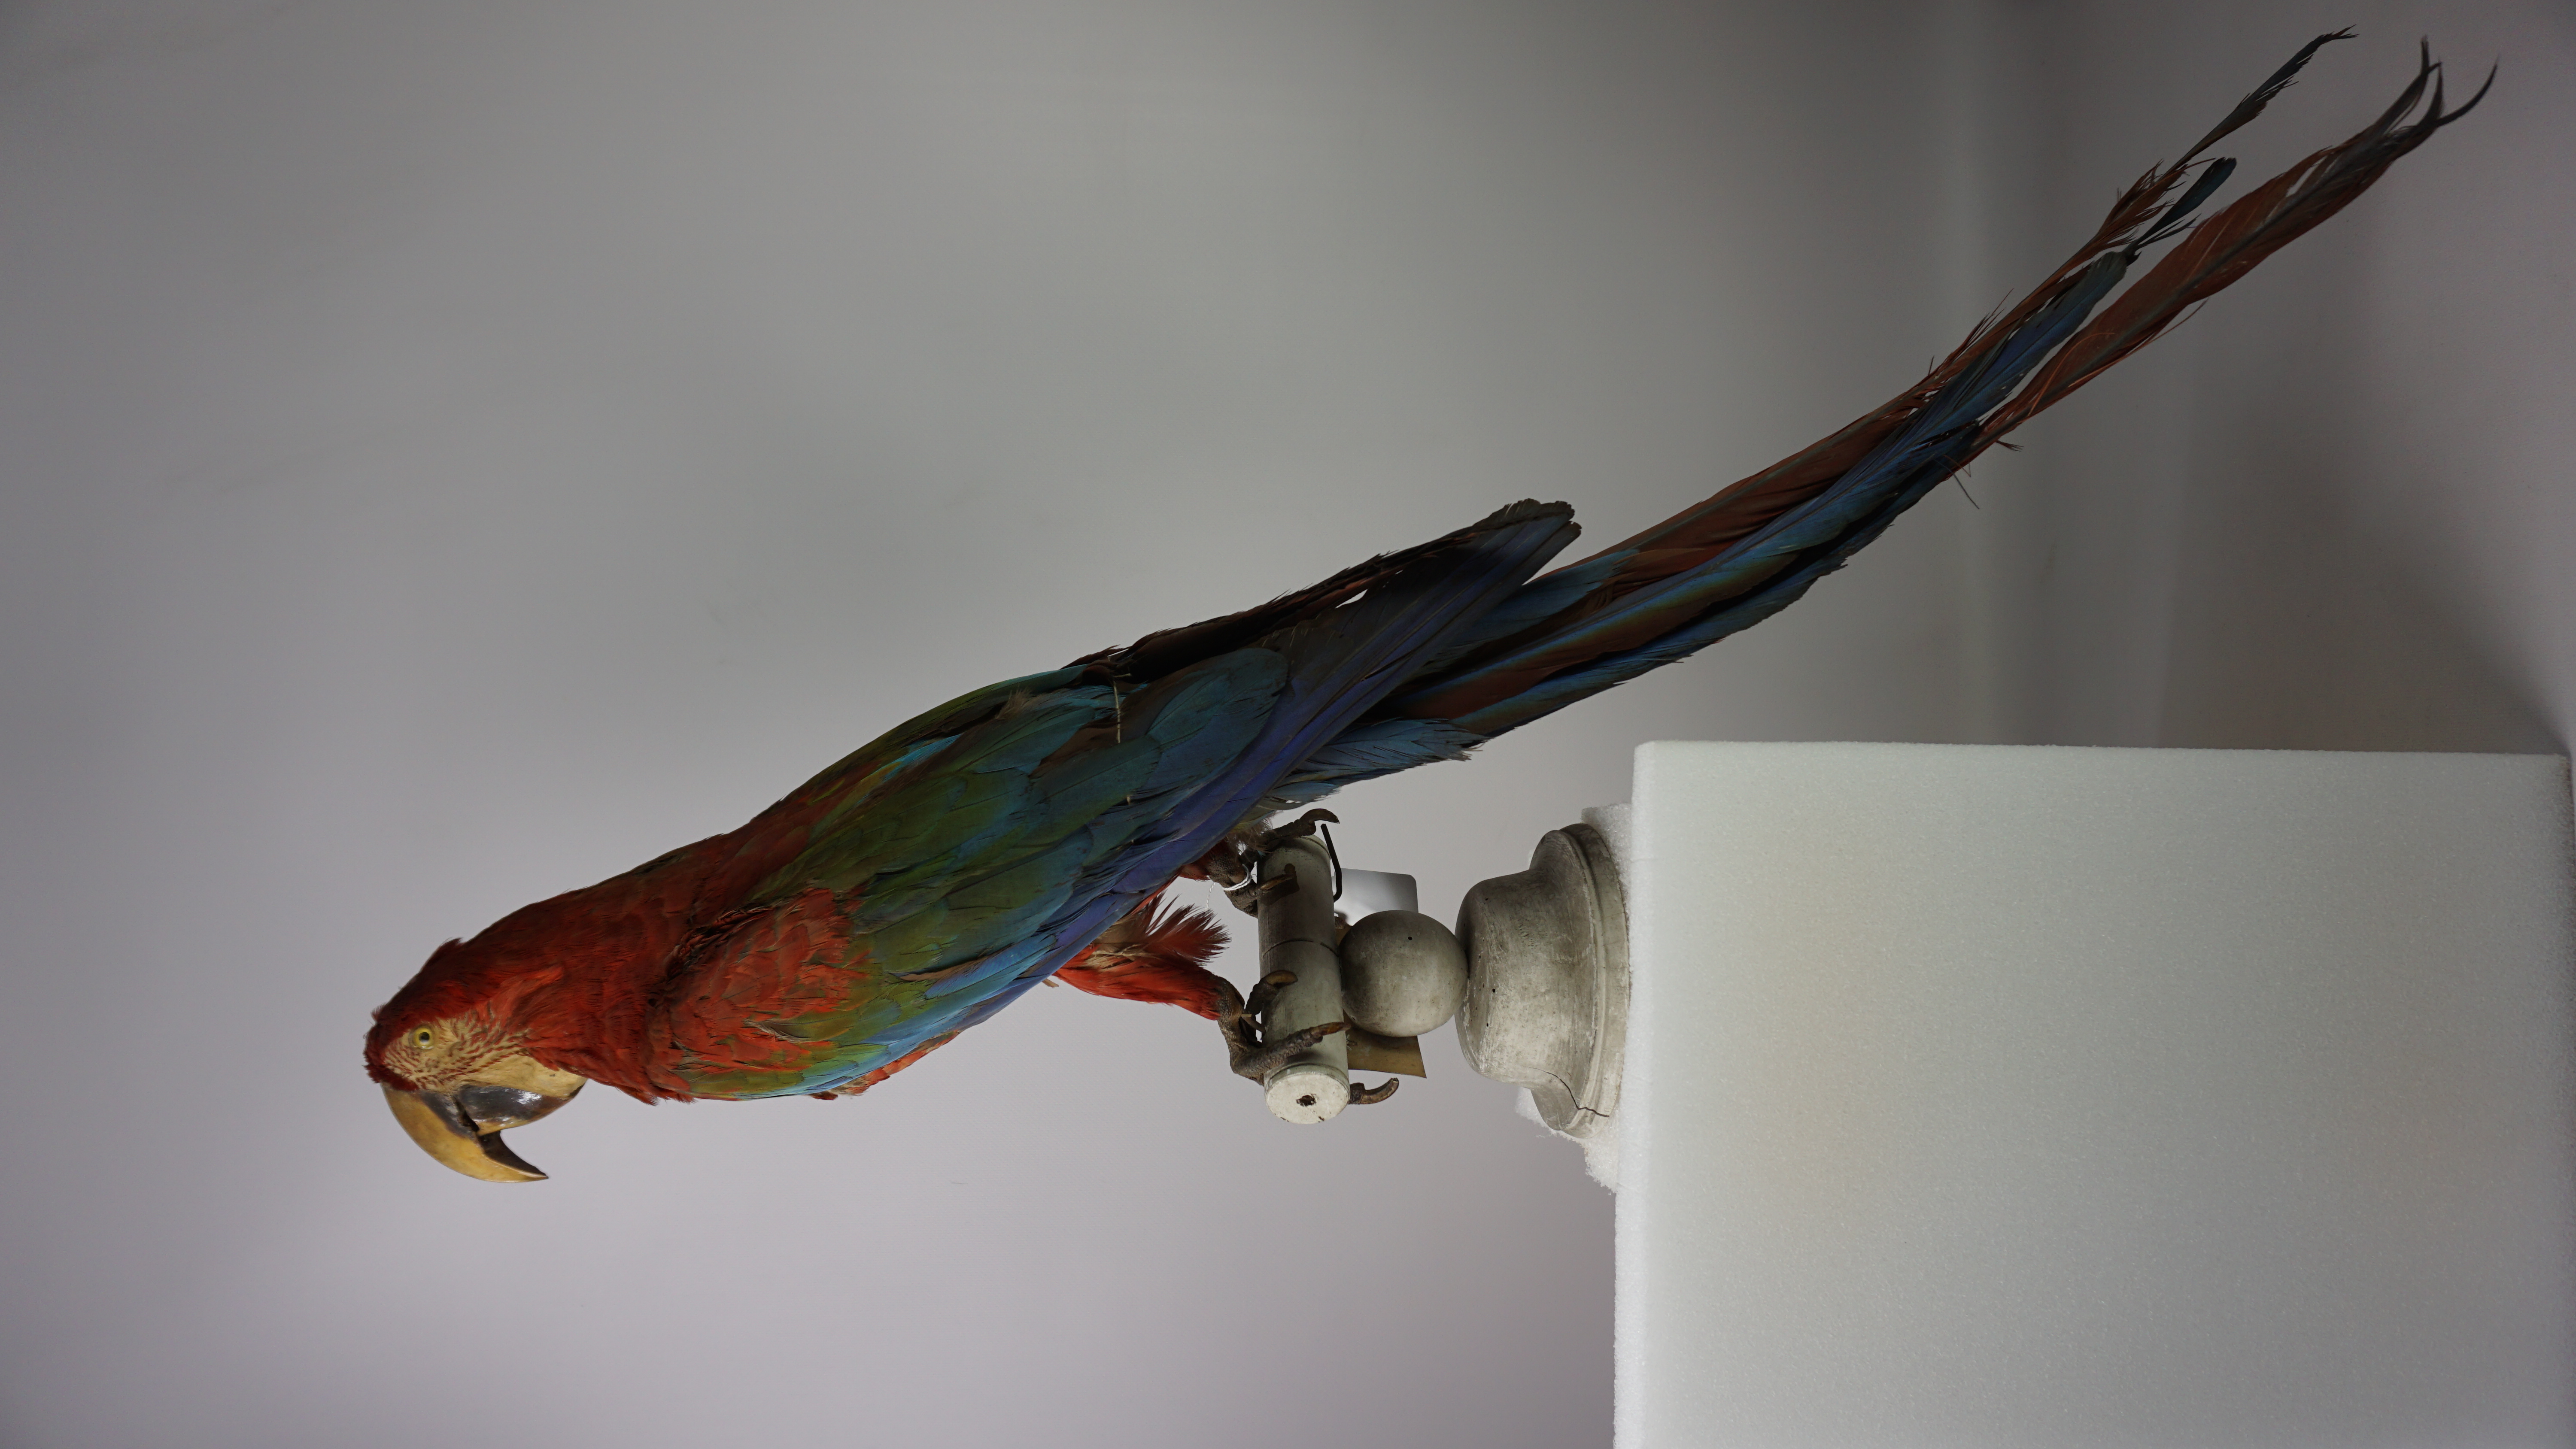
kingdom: Animalia
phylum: Chordata
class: Aves
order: Psittaciformes
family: Psittacidae
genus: Ara
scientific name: Ara chloropterus
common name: Red-and-green macaw
